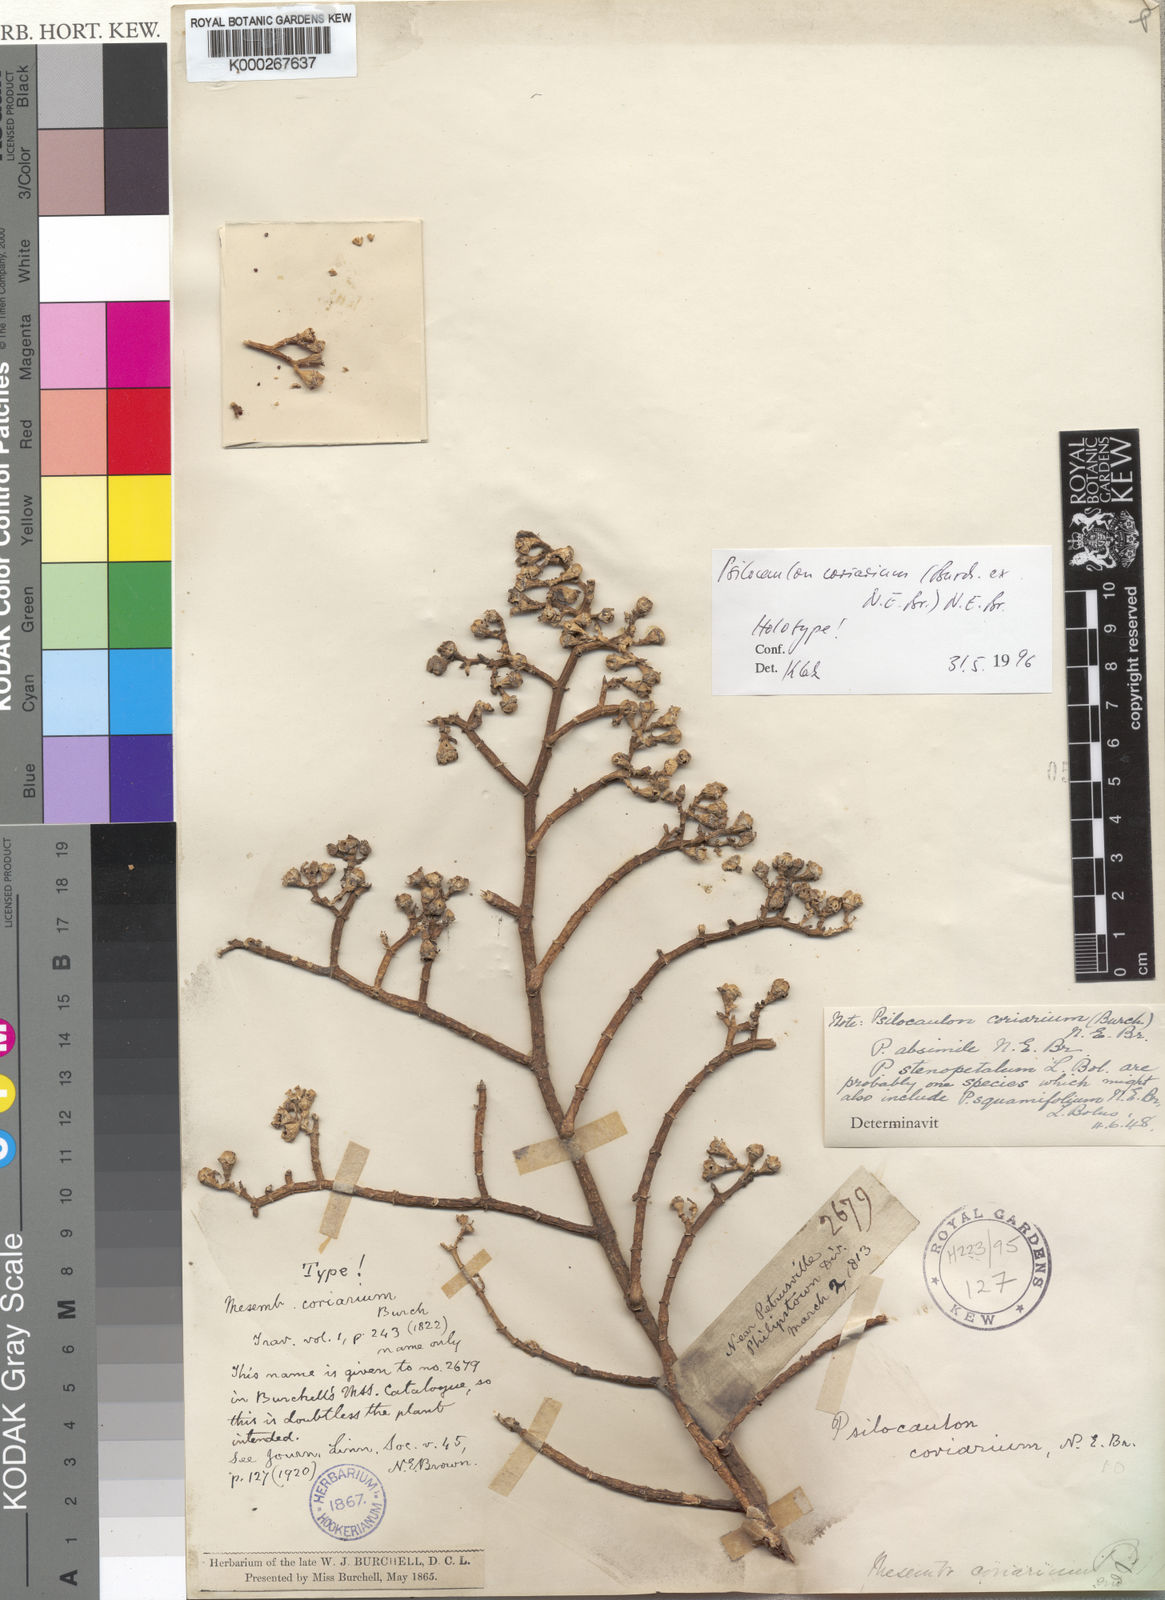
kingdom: Plantae
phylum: Tracheophyta
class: Magnoliopsida
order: Caryophyllales
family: Aizoaceae
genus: Mesembryanthemum
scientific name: Mesembryanthemum coriarium
